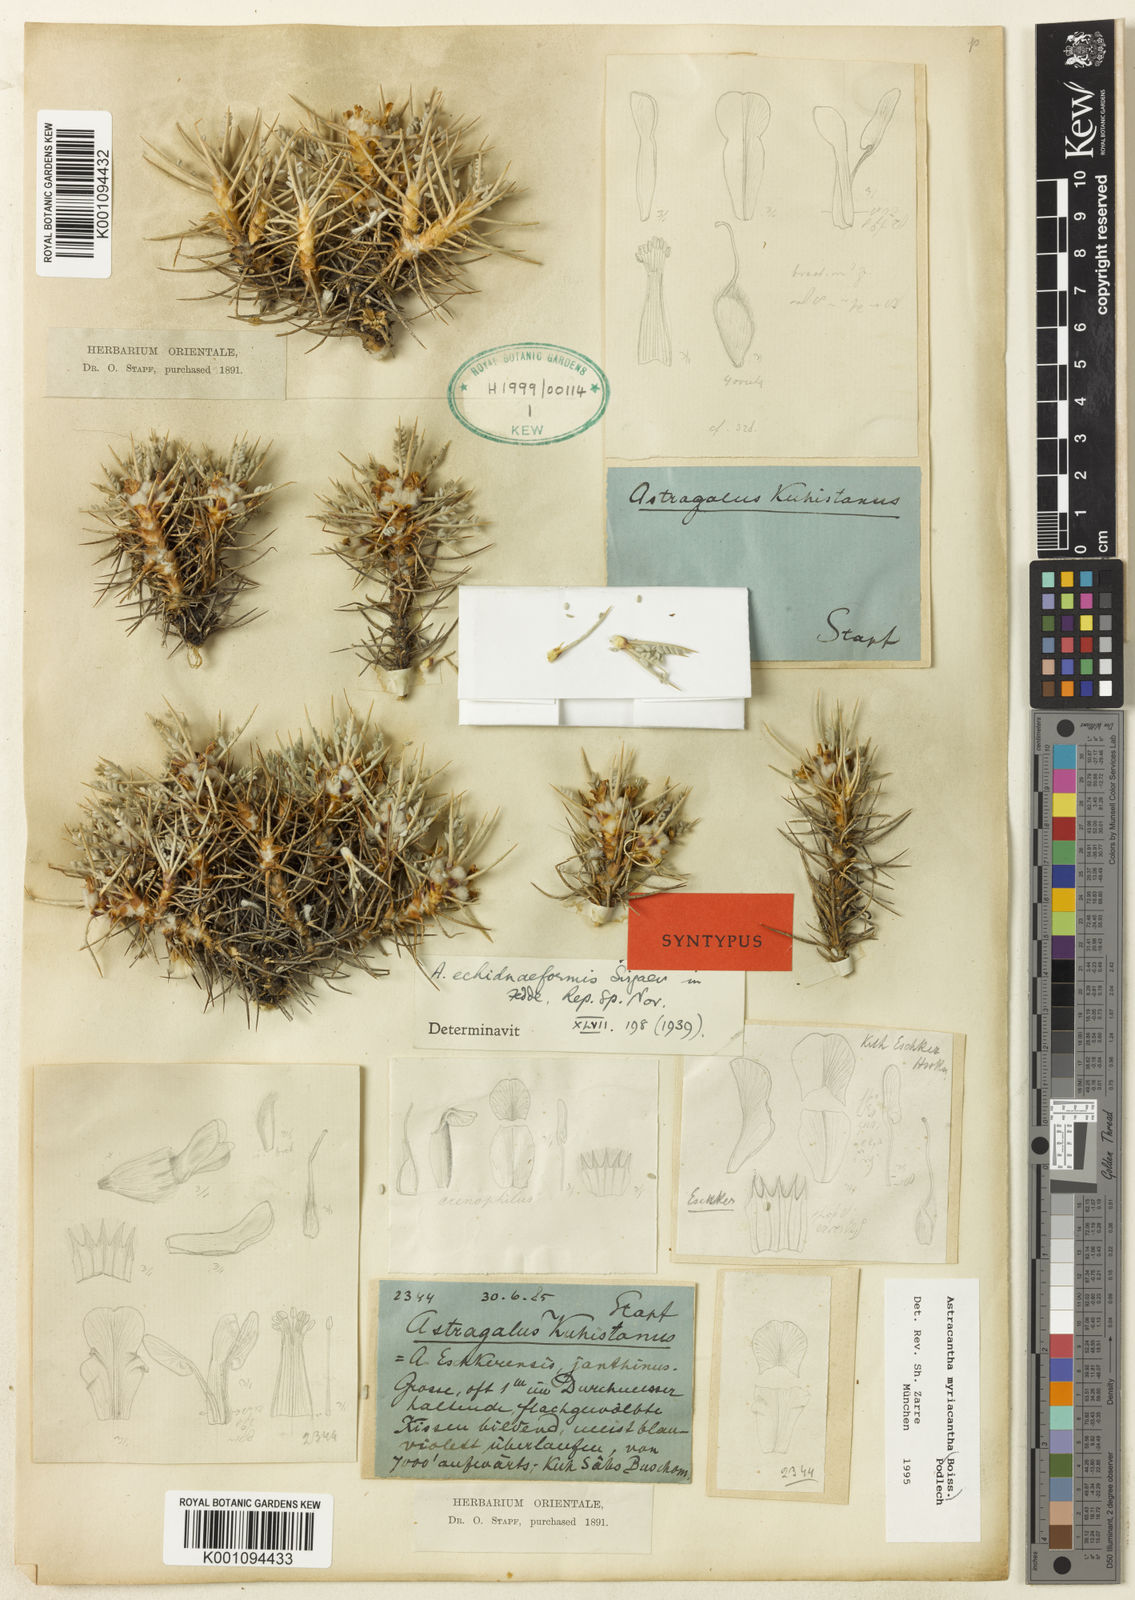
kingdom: Plantae
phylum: Tracheophyta
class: Magnoliopsida
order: Fabales
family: Fabaceae
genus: Astragalus
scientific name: Astragalus
